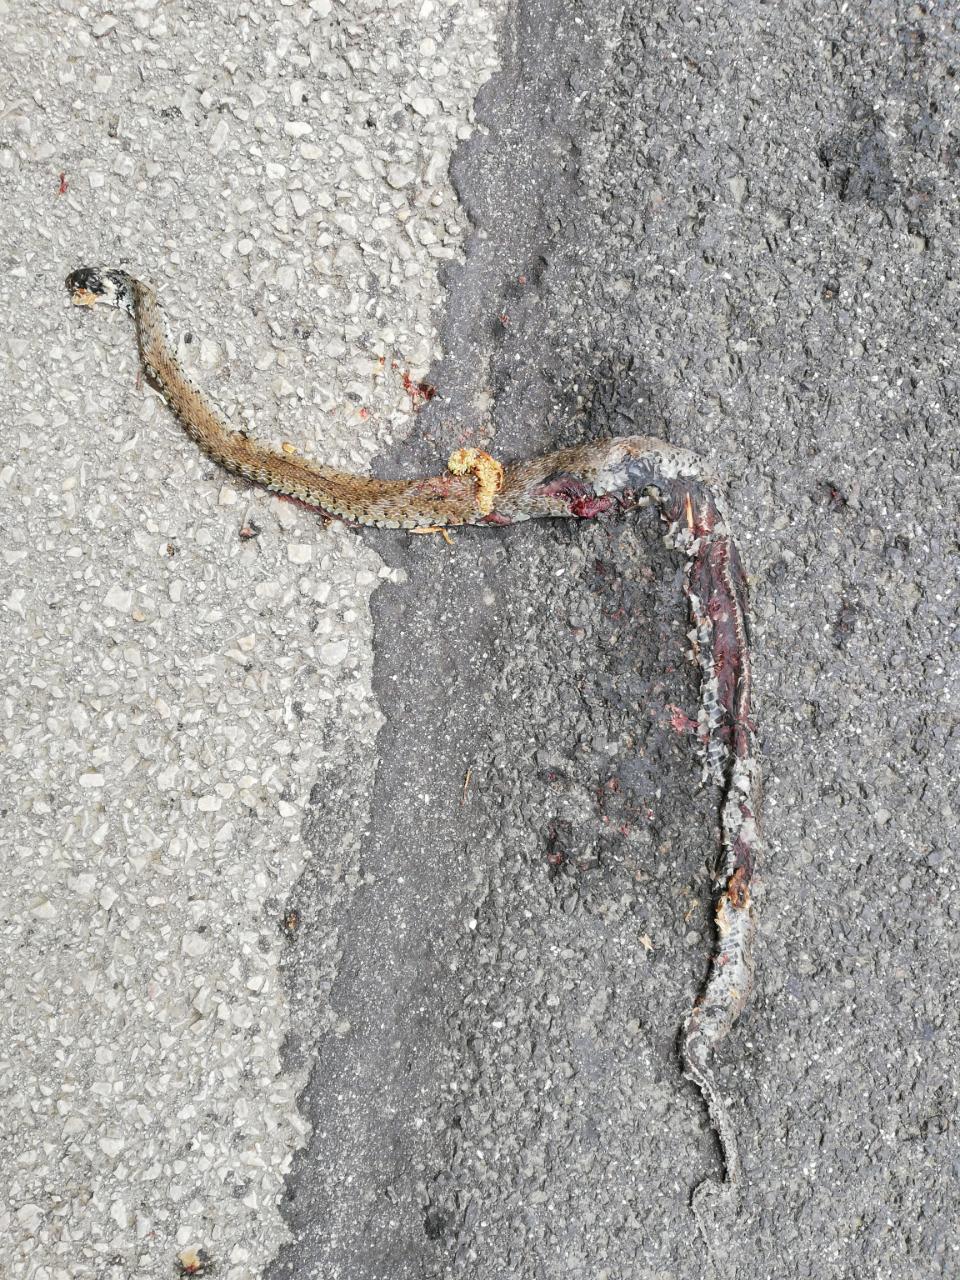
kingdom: Animalia
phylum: Chordata
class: Squamata
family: Colubridae
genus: Natrix
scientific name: Natrix natrix
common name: Grass snake
